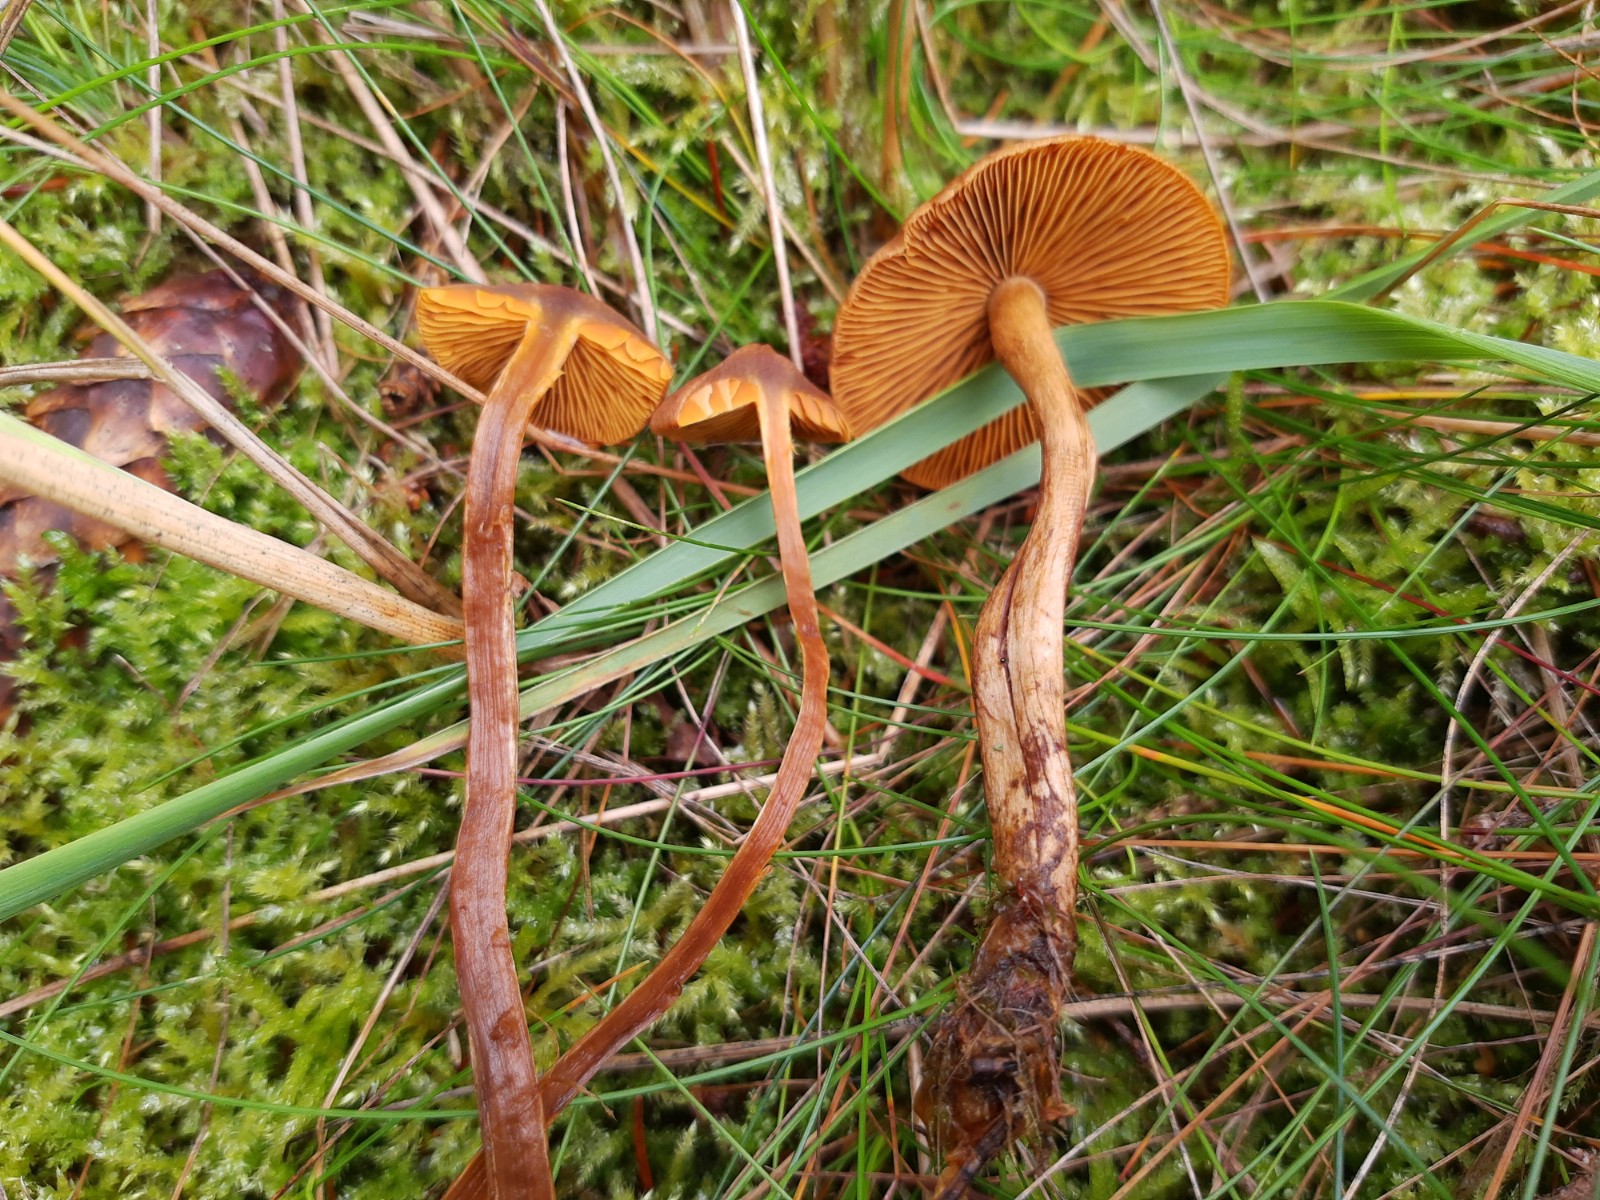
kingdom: Fungi
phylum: Basidiomycota
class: Agaricomycetes
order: Agaricales
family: Cortinariaceae
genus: Cortinarius
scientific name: Cortinarius pellstonianus
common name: zoneret slørhat
